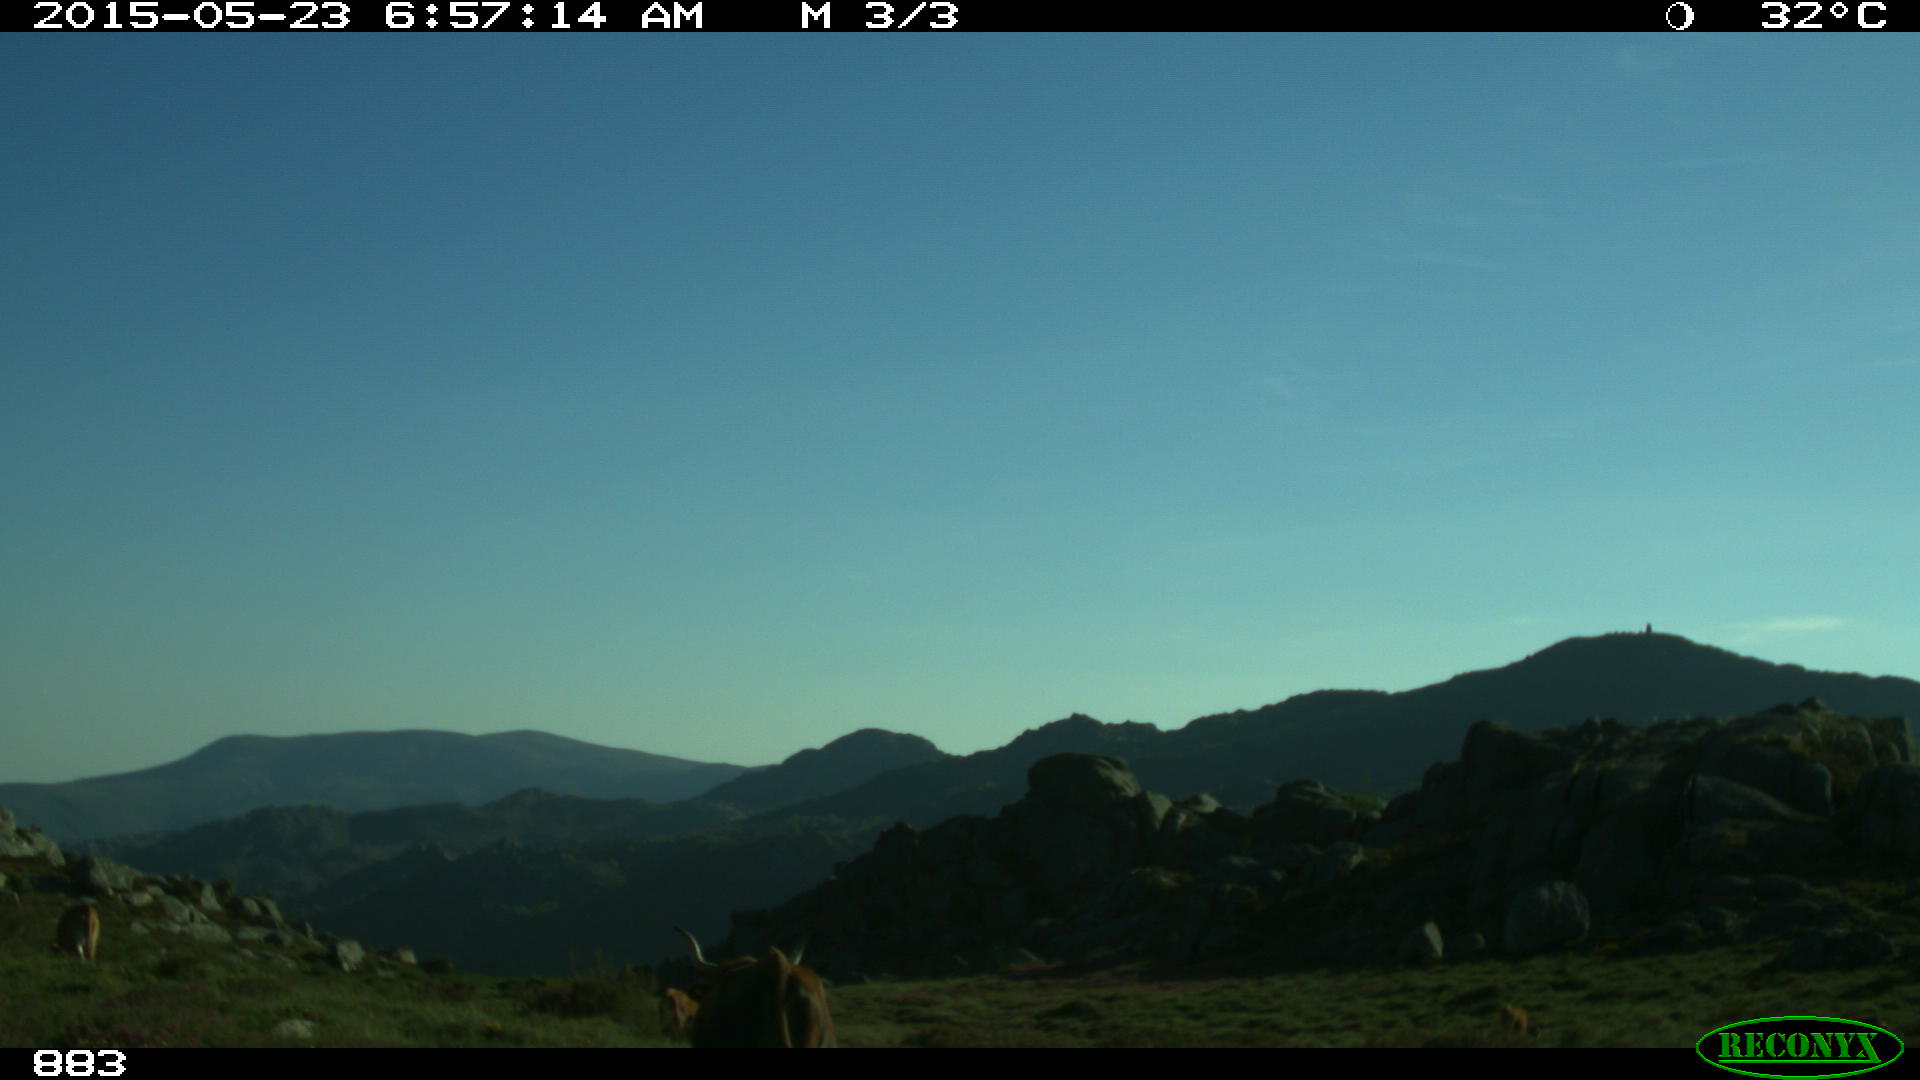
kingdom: Animalia
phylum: Chordata
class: Mammalia
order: Artiodactyla
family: Bovidae
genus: Bos
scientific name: Bos taurus
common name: Domesticated cattle
